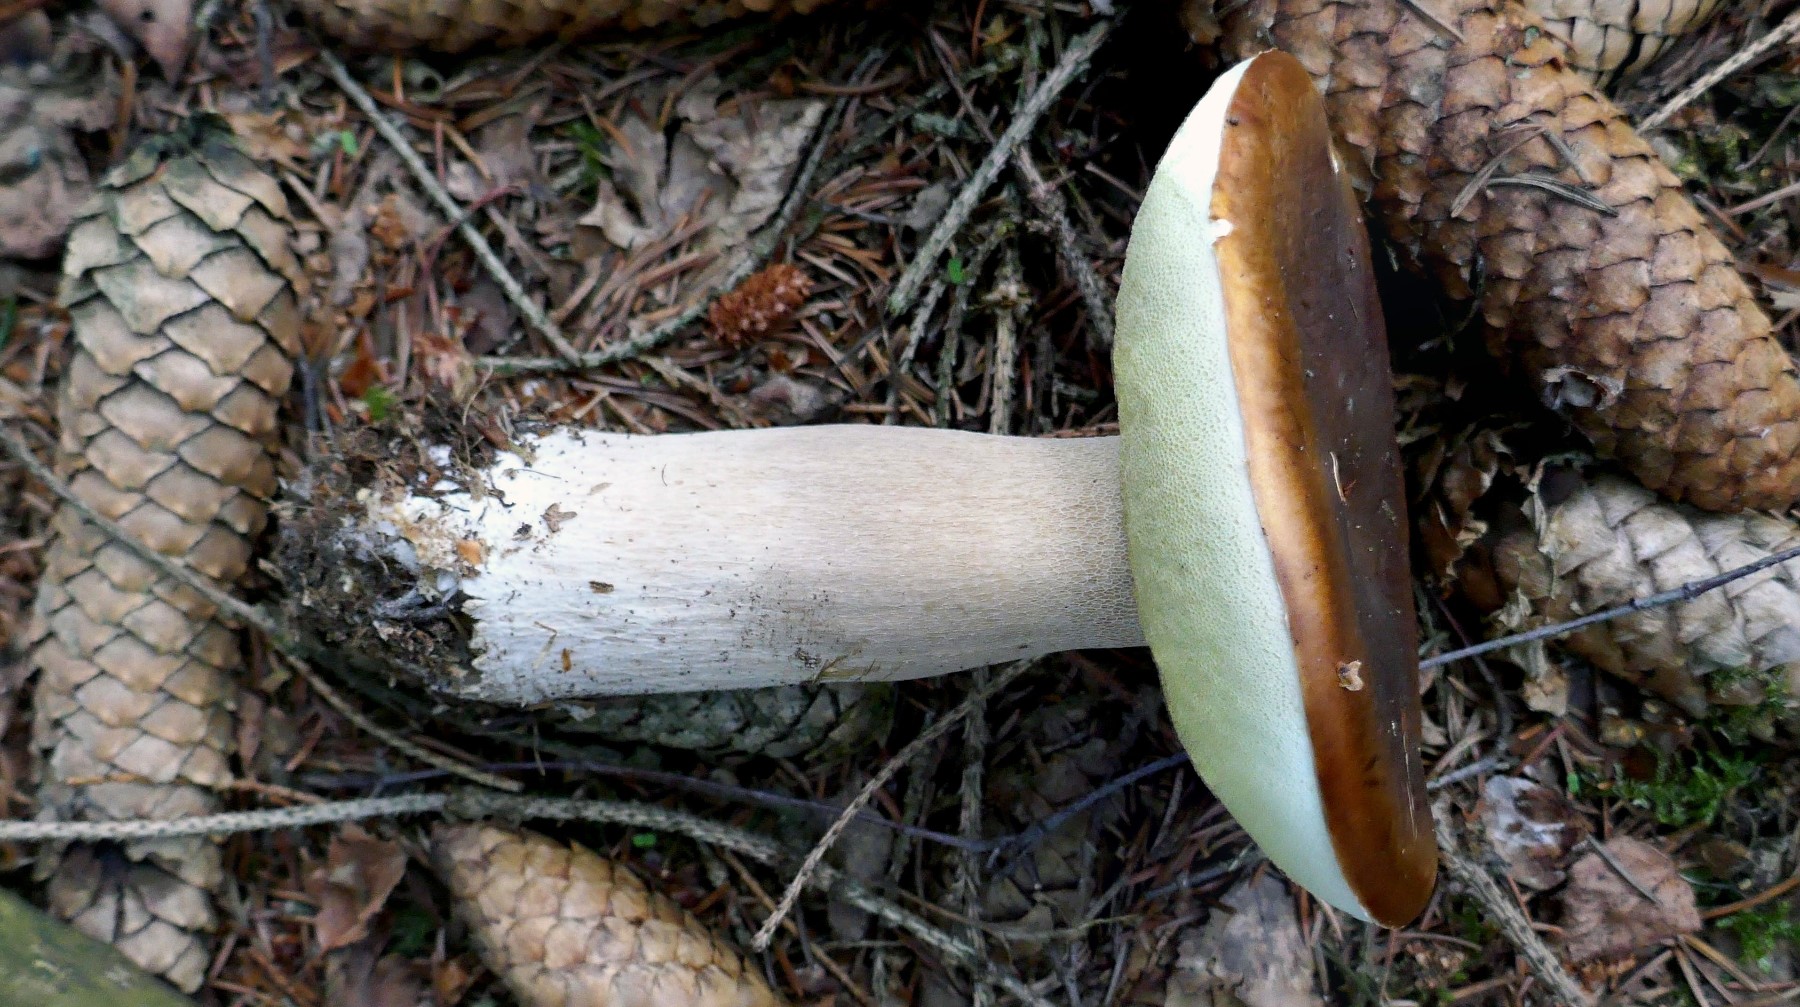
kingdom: Fungi
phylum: Basidiomycota
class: Agaricomycetes
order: Boletales
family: Boletaceae
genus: Boletus
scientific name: Boletus edulis
